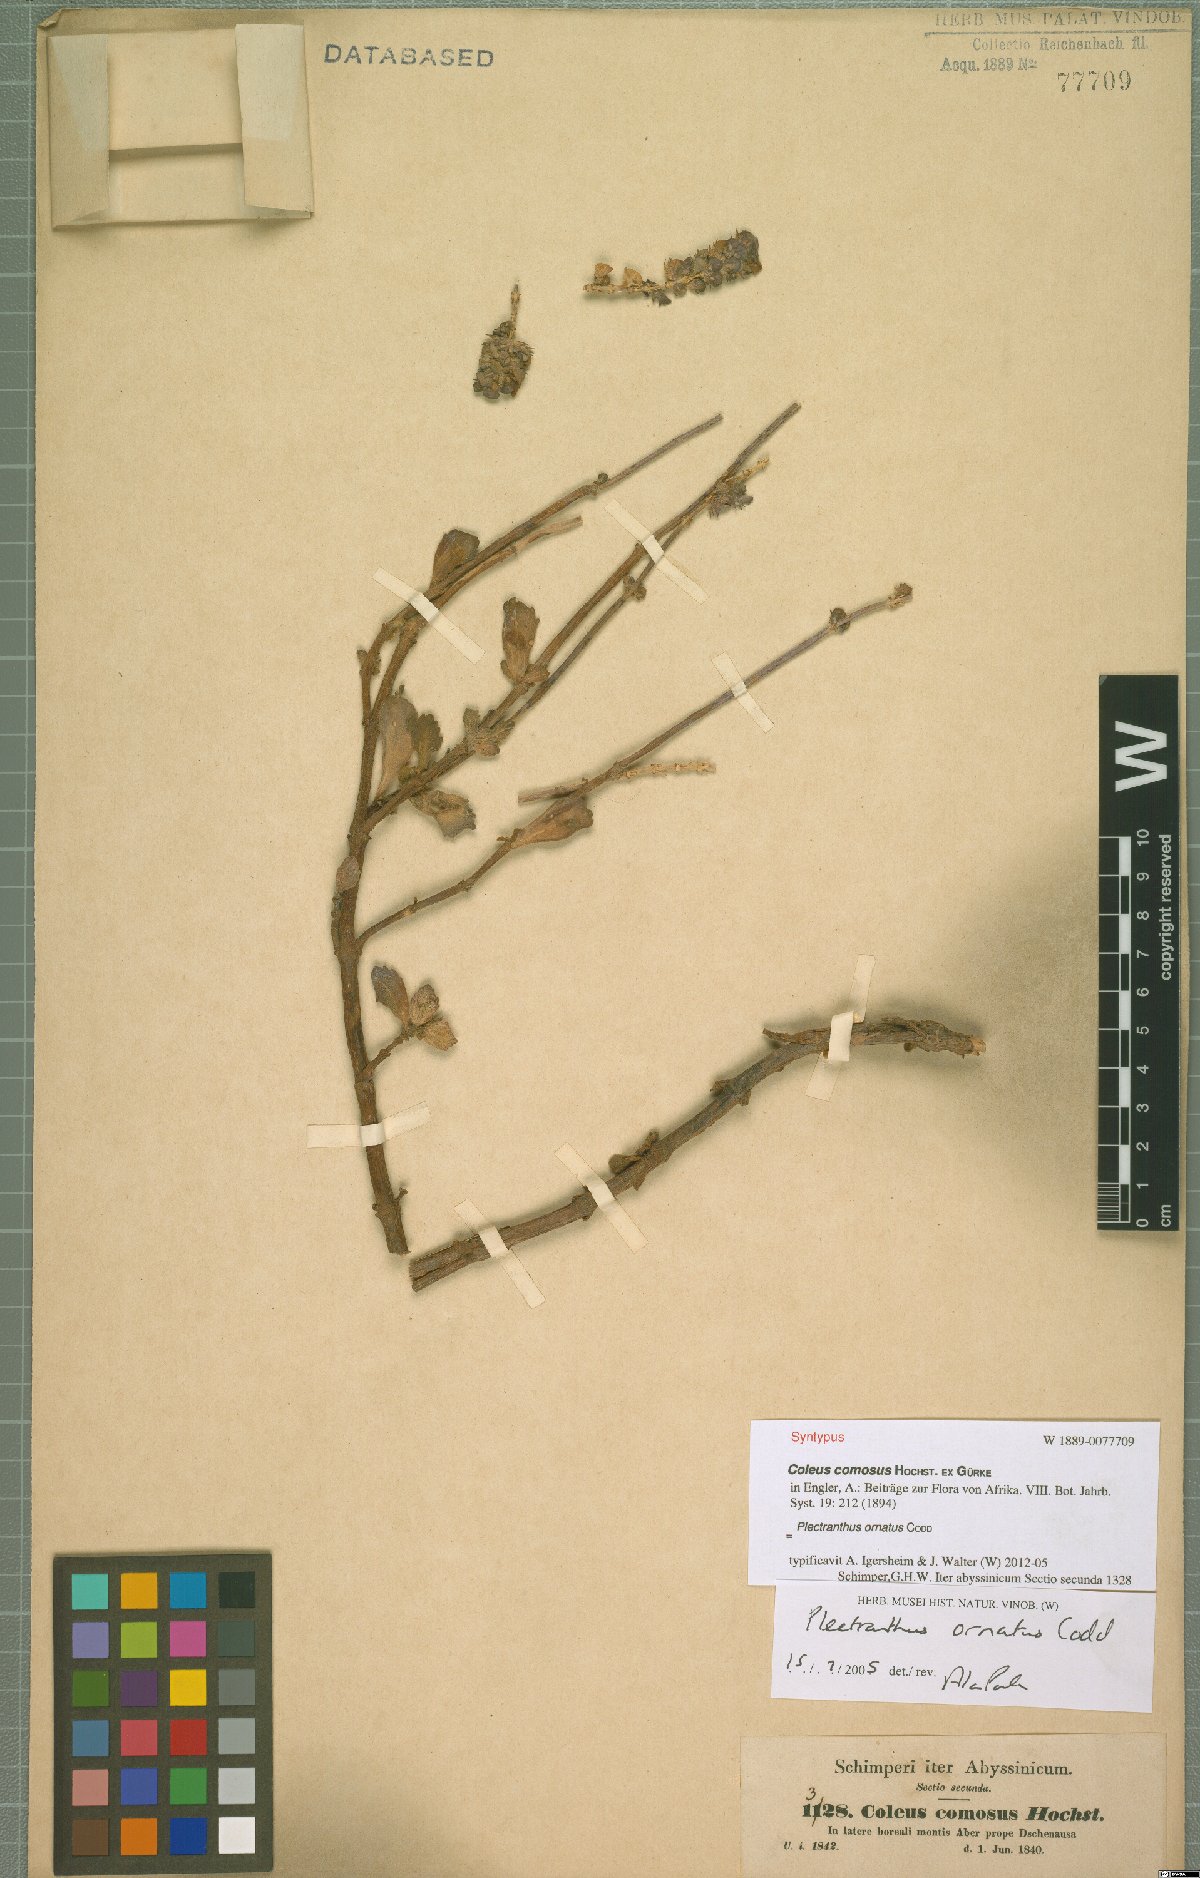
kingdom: Plantae
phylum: Tracheophyta
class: Magnoliopsida
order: Lamiales
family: Lamiaceae
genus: Coleus
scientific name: Coleus comosus
